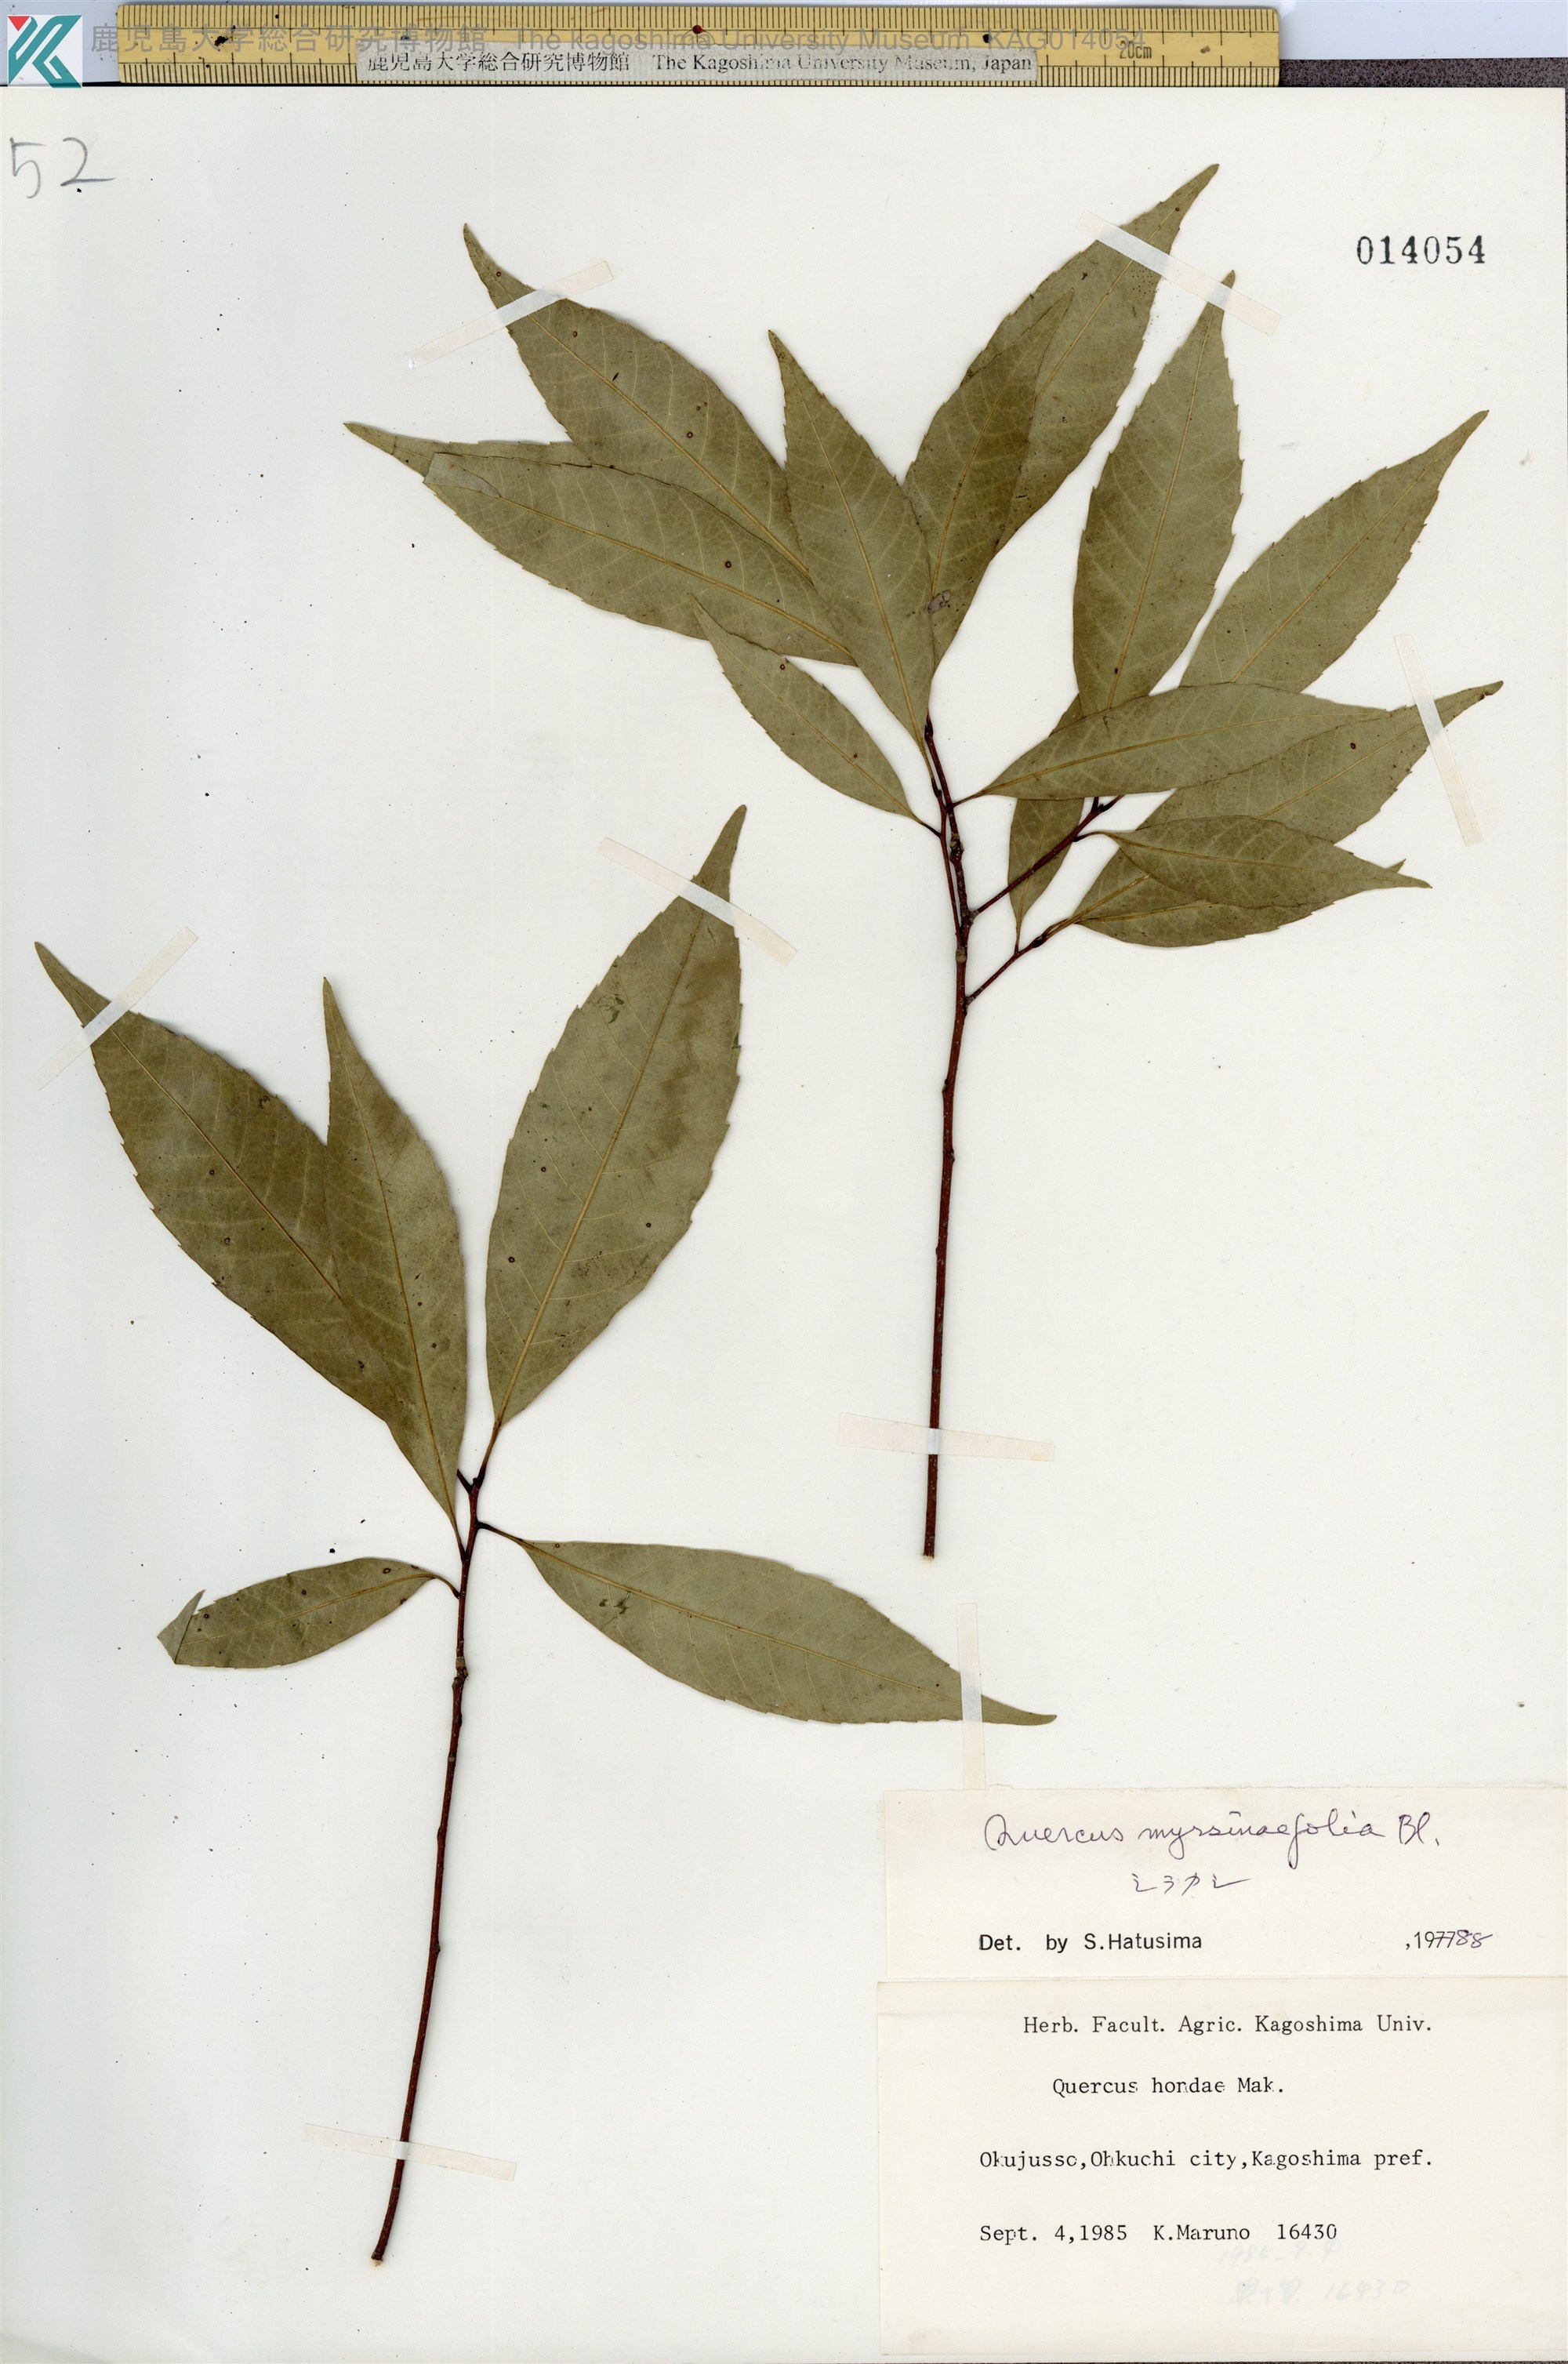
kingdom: Plantae
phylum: Tracheophyta
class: Magnoliopsida
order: Fagales
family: Fagaceae
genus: Quercus
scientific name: Quercus myrsinaefolia
